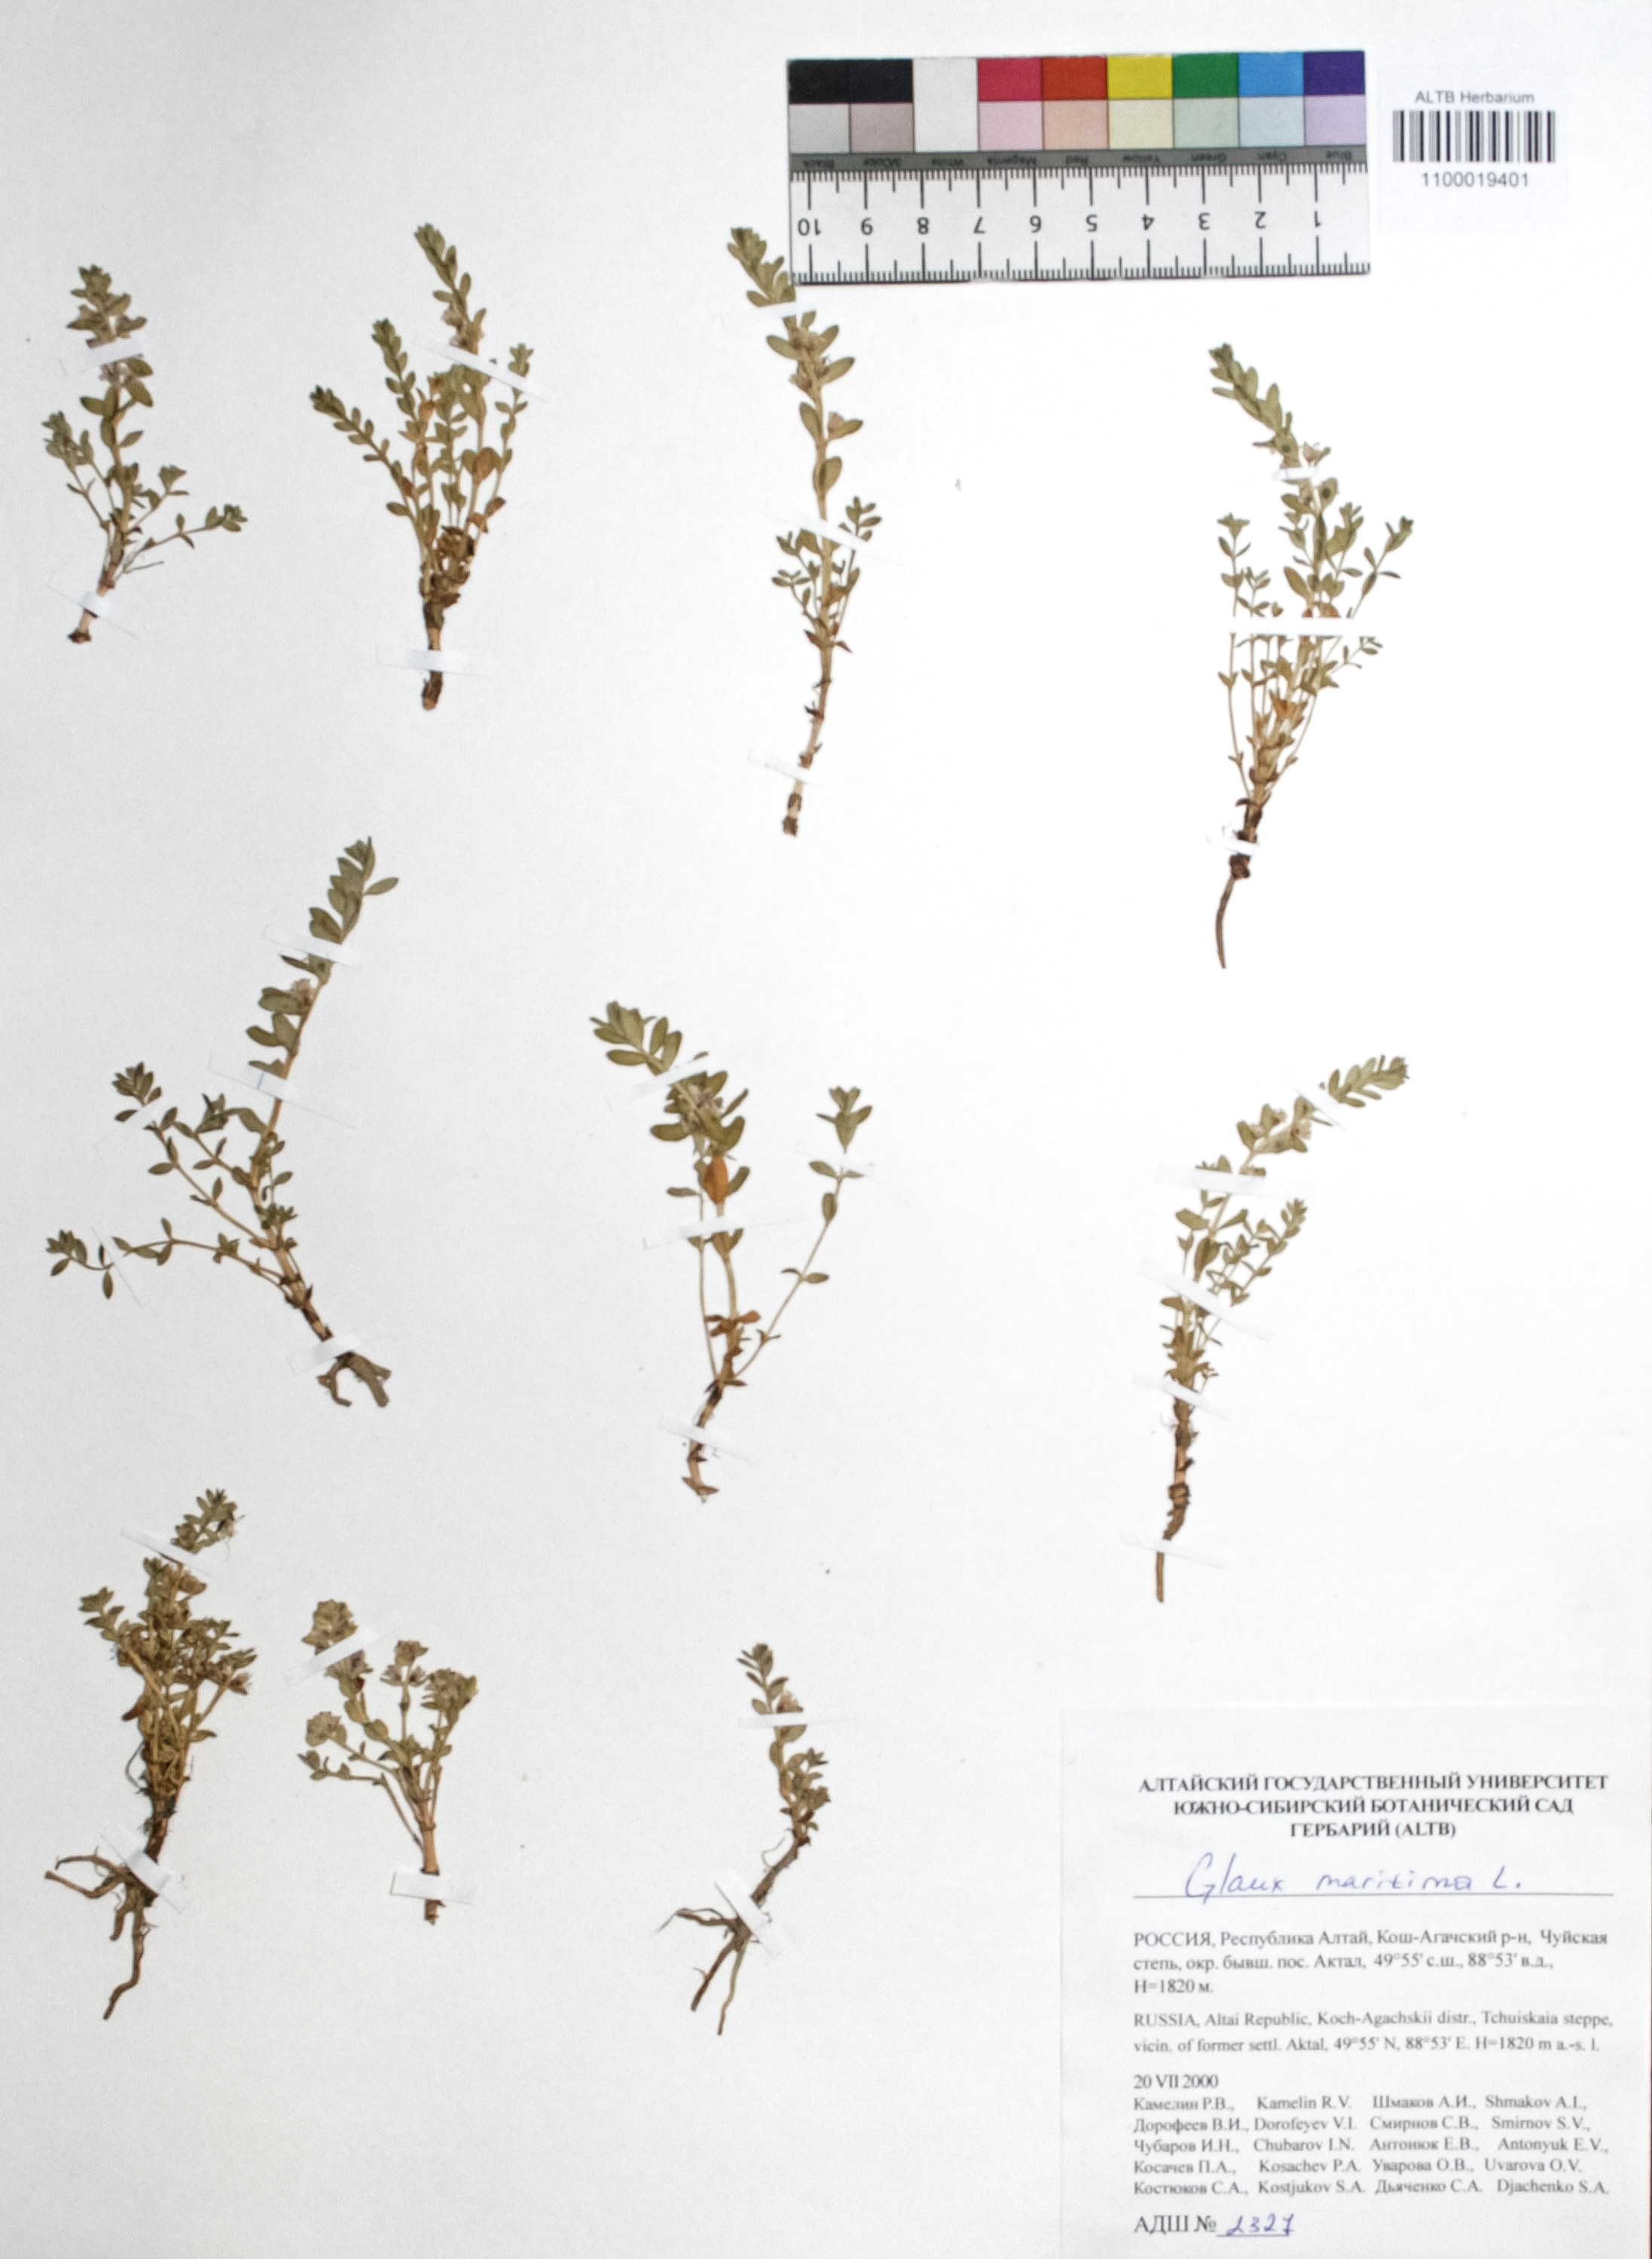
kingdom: Plantae
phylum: Tracheophyta
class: Magnoliopsida
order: Ericales
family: Primulaceae
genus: Lysimachia
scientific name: Lysimachia maritima
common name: Sea milkwort
